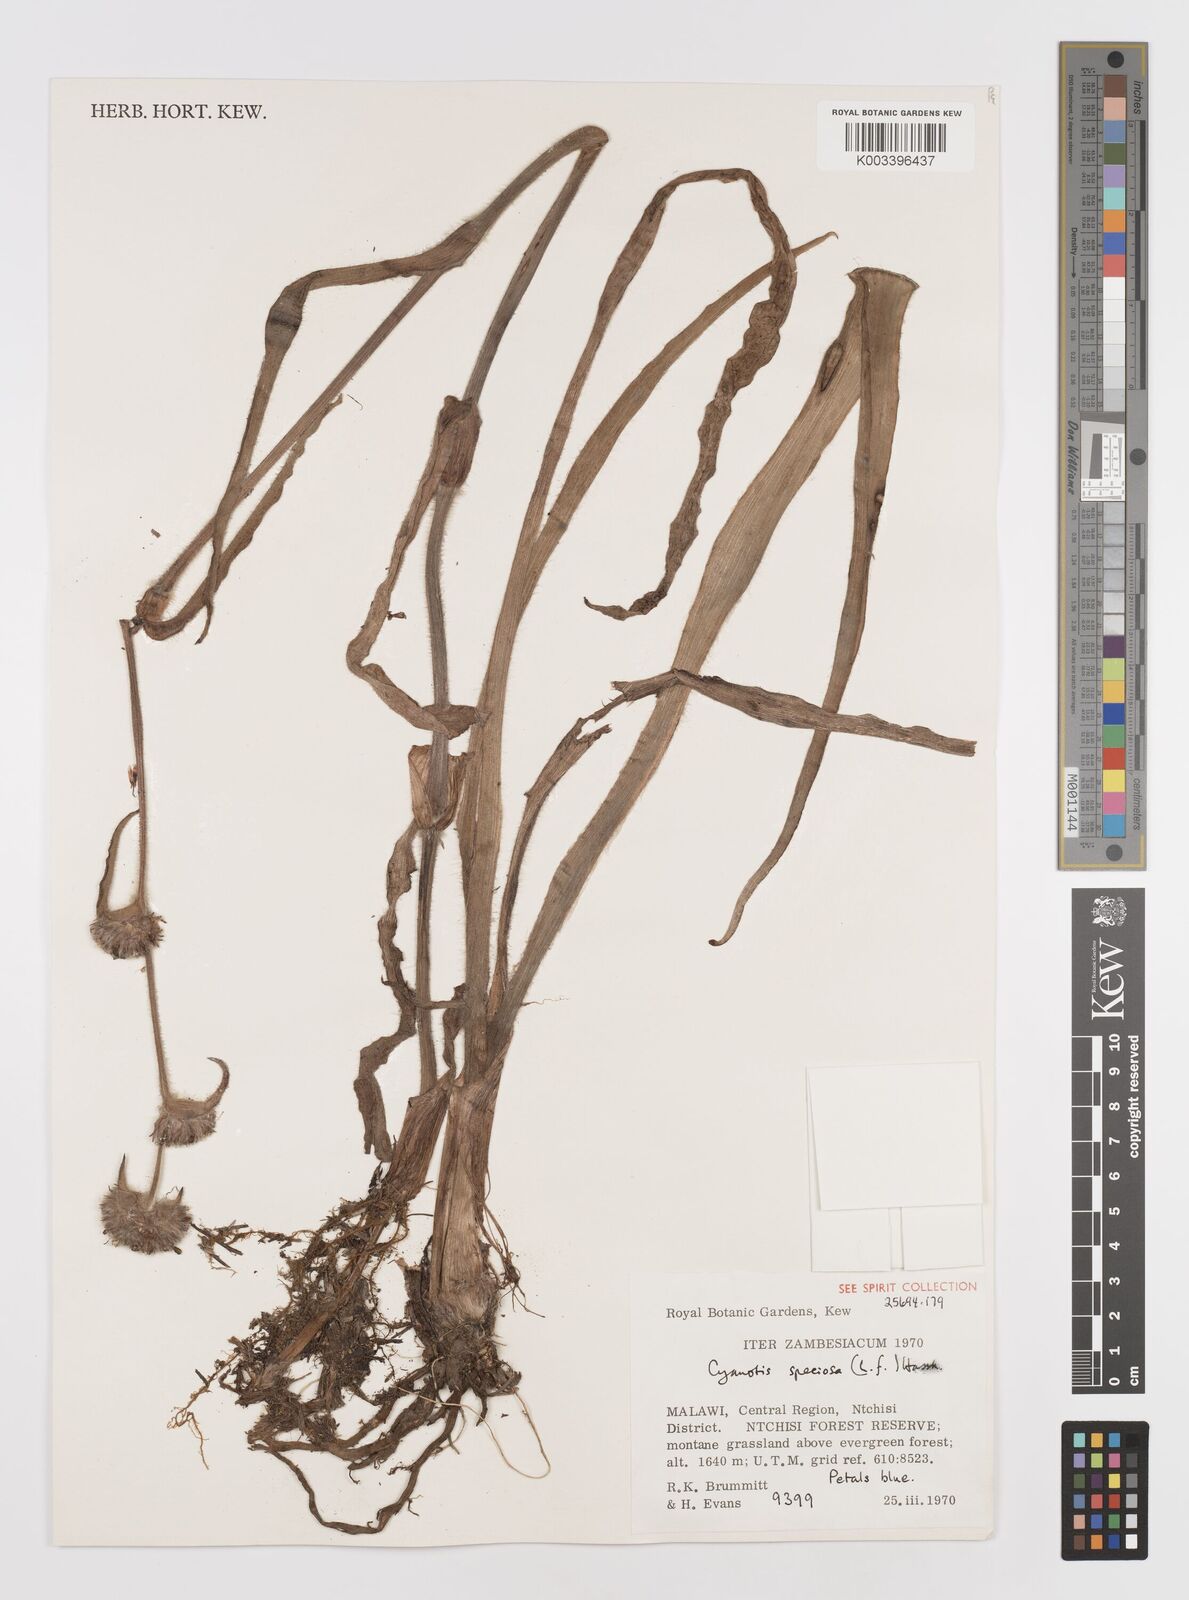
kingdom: Plantae
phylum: Tracheophyta
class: Liliopsida
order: Commelinales
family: Commelinaceae
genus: Cyanotis
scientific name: Cyanotis speciosa
